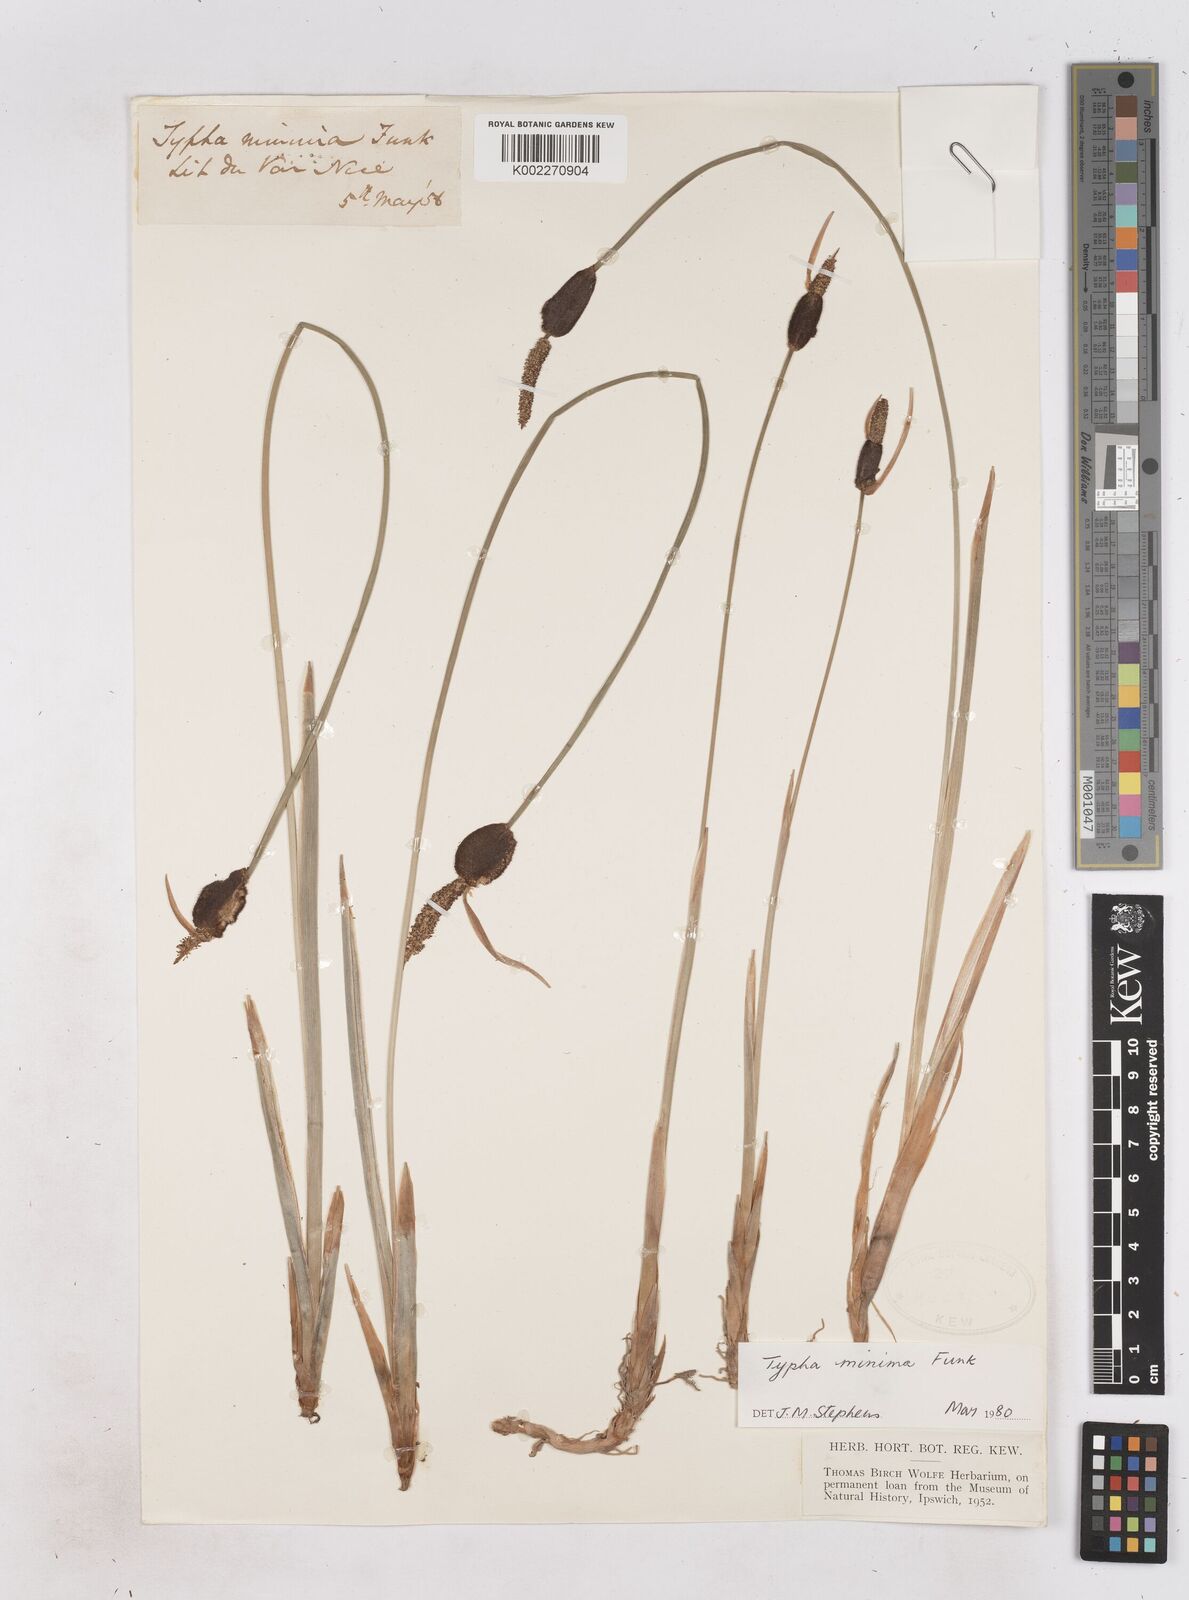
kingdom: Plantae
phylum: Tracheophyta
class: Liliopsida
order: Poales
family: Typhaceae
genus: Typha
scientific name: Typha
